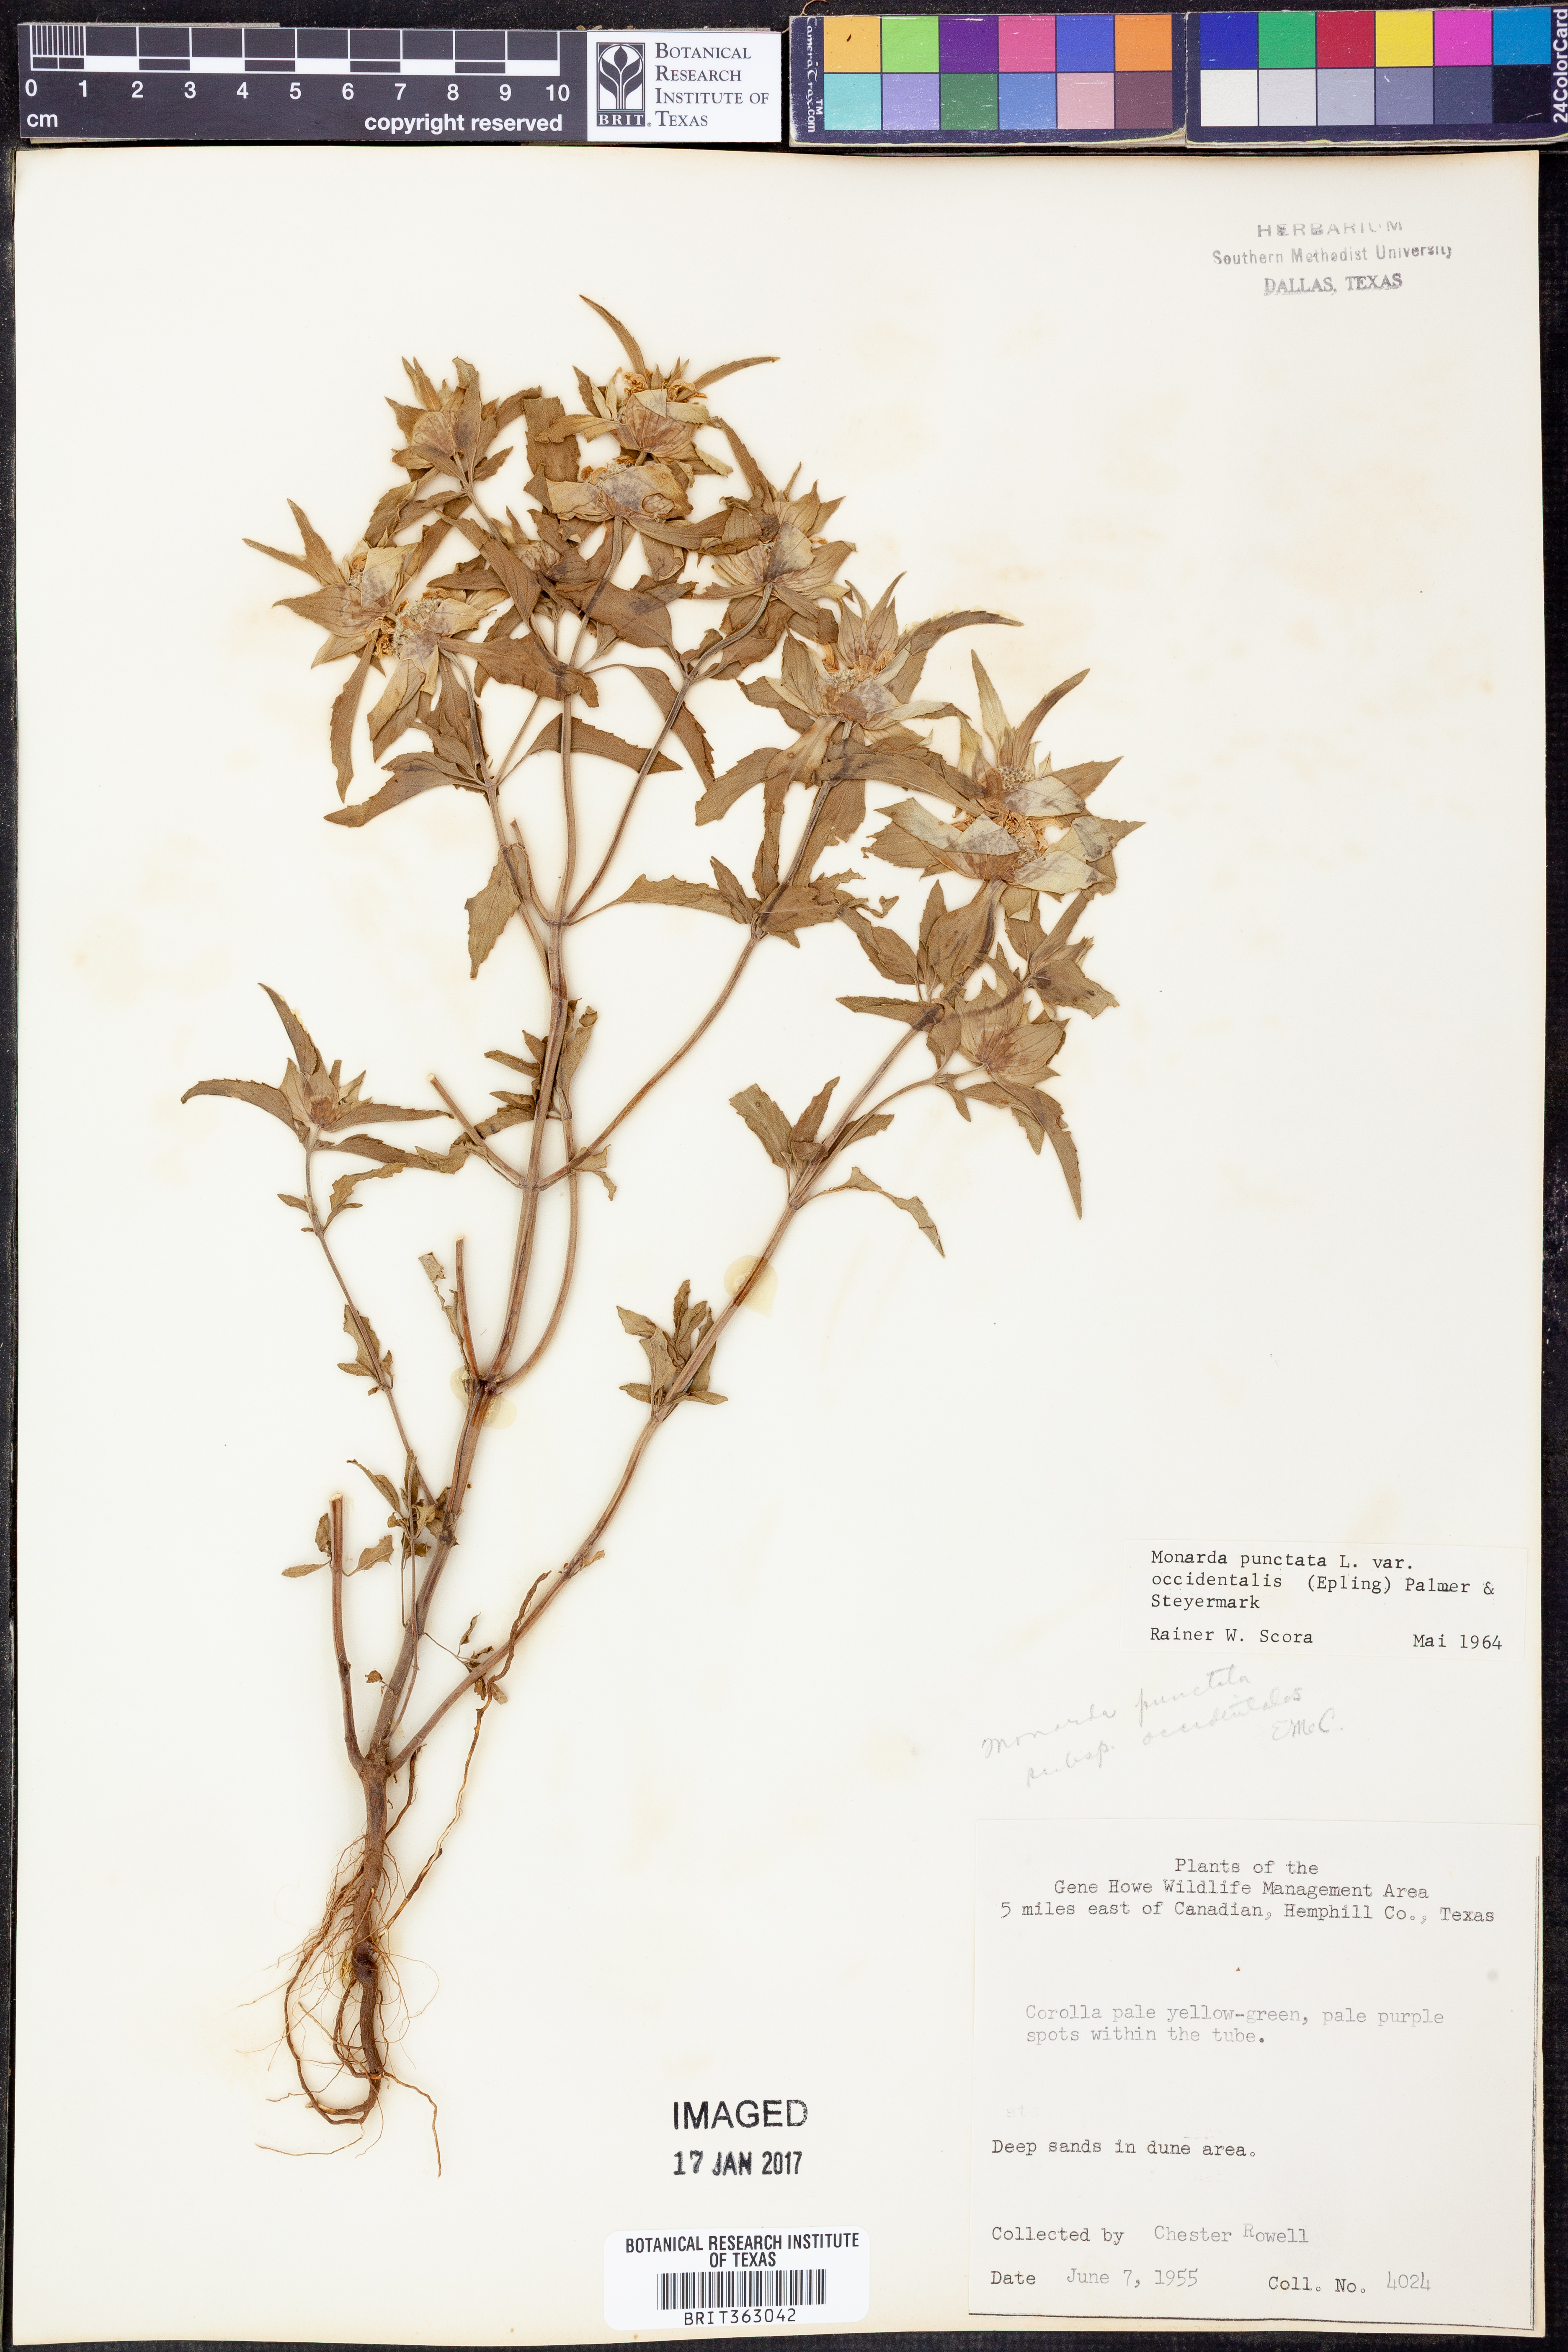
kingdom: Plantae
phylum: Tracheophyta
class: Magnoliopsida
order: Lamiales
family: Lamiaceae
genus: Monarda
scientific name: Monarda punctata
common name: Dotted monarda
